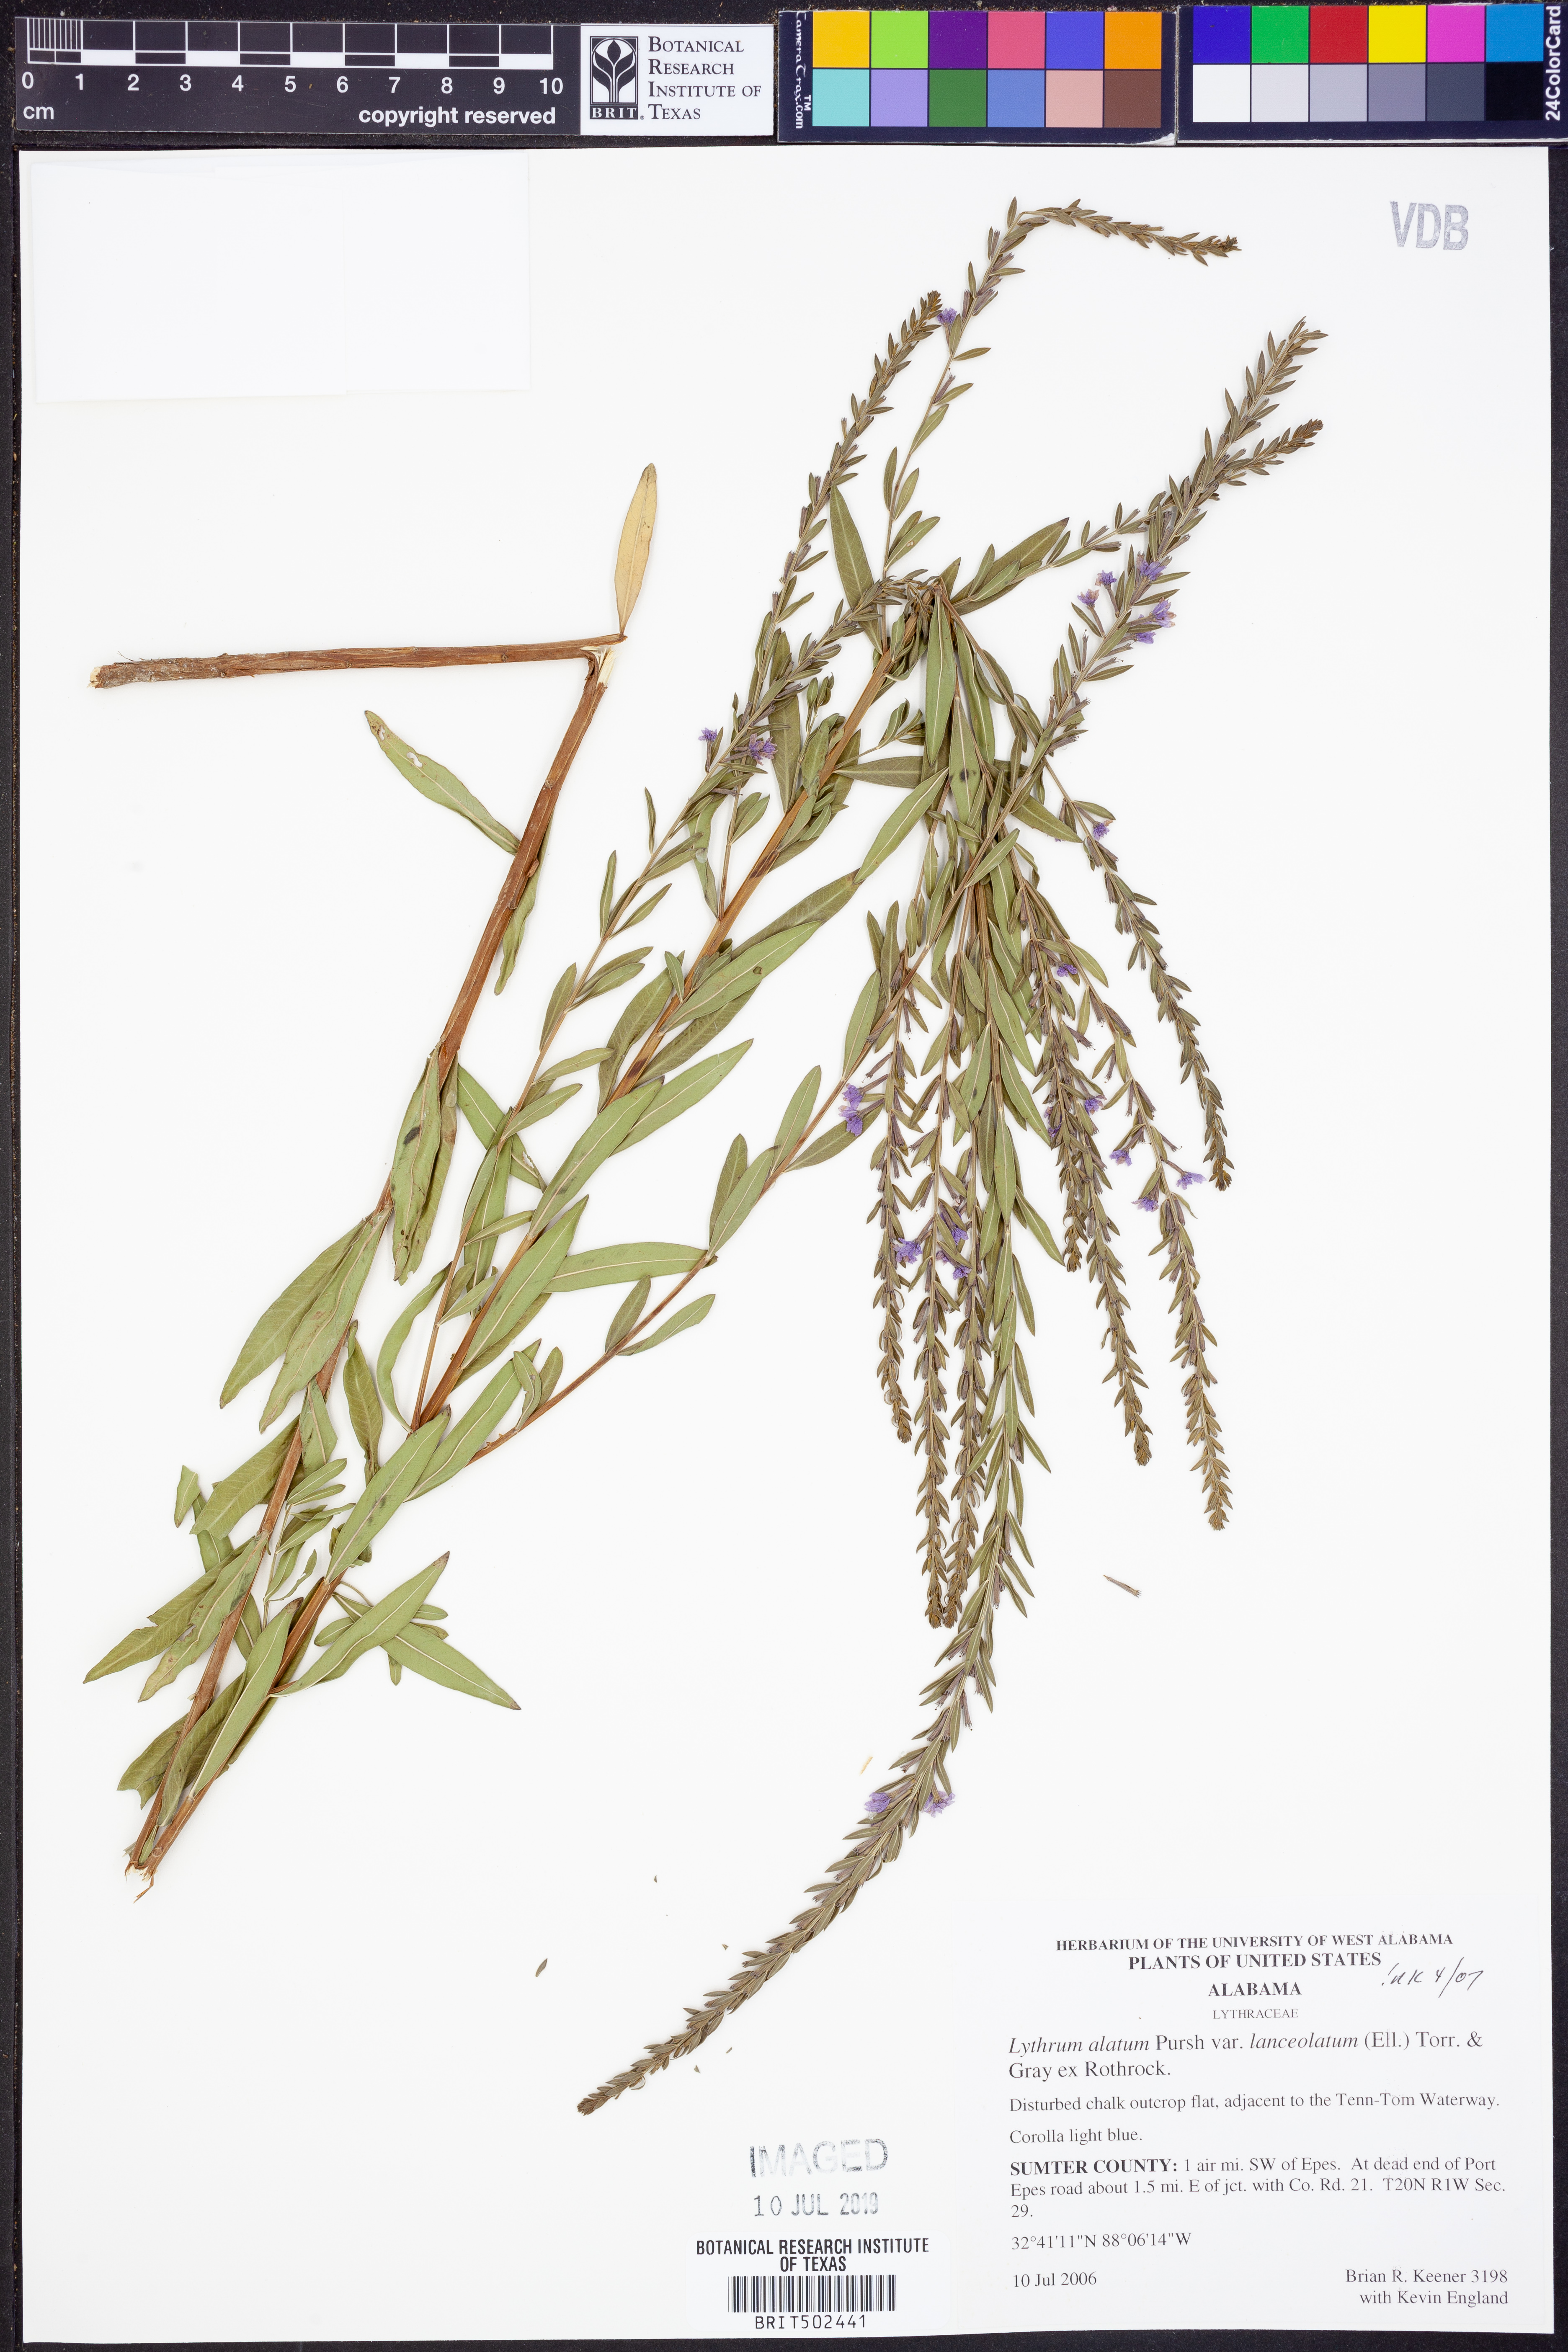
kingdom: Plantae
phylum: Tracheophyta
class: Magnoliopsida
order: Myrtales
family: Lythraceae
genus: Lythrum
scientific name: Lythrum alatum
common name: Winged loosestrife
